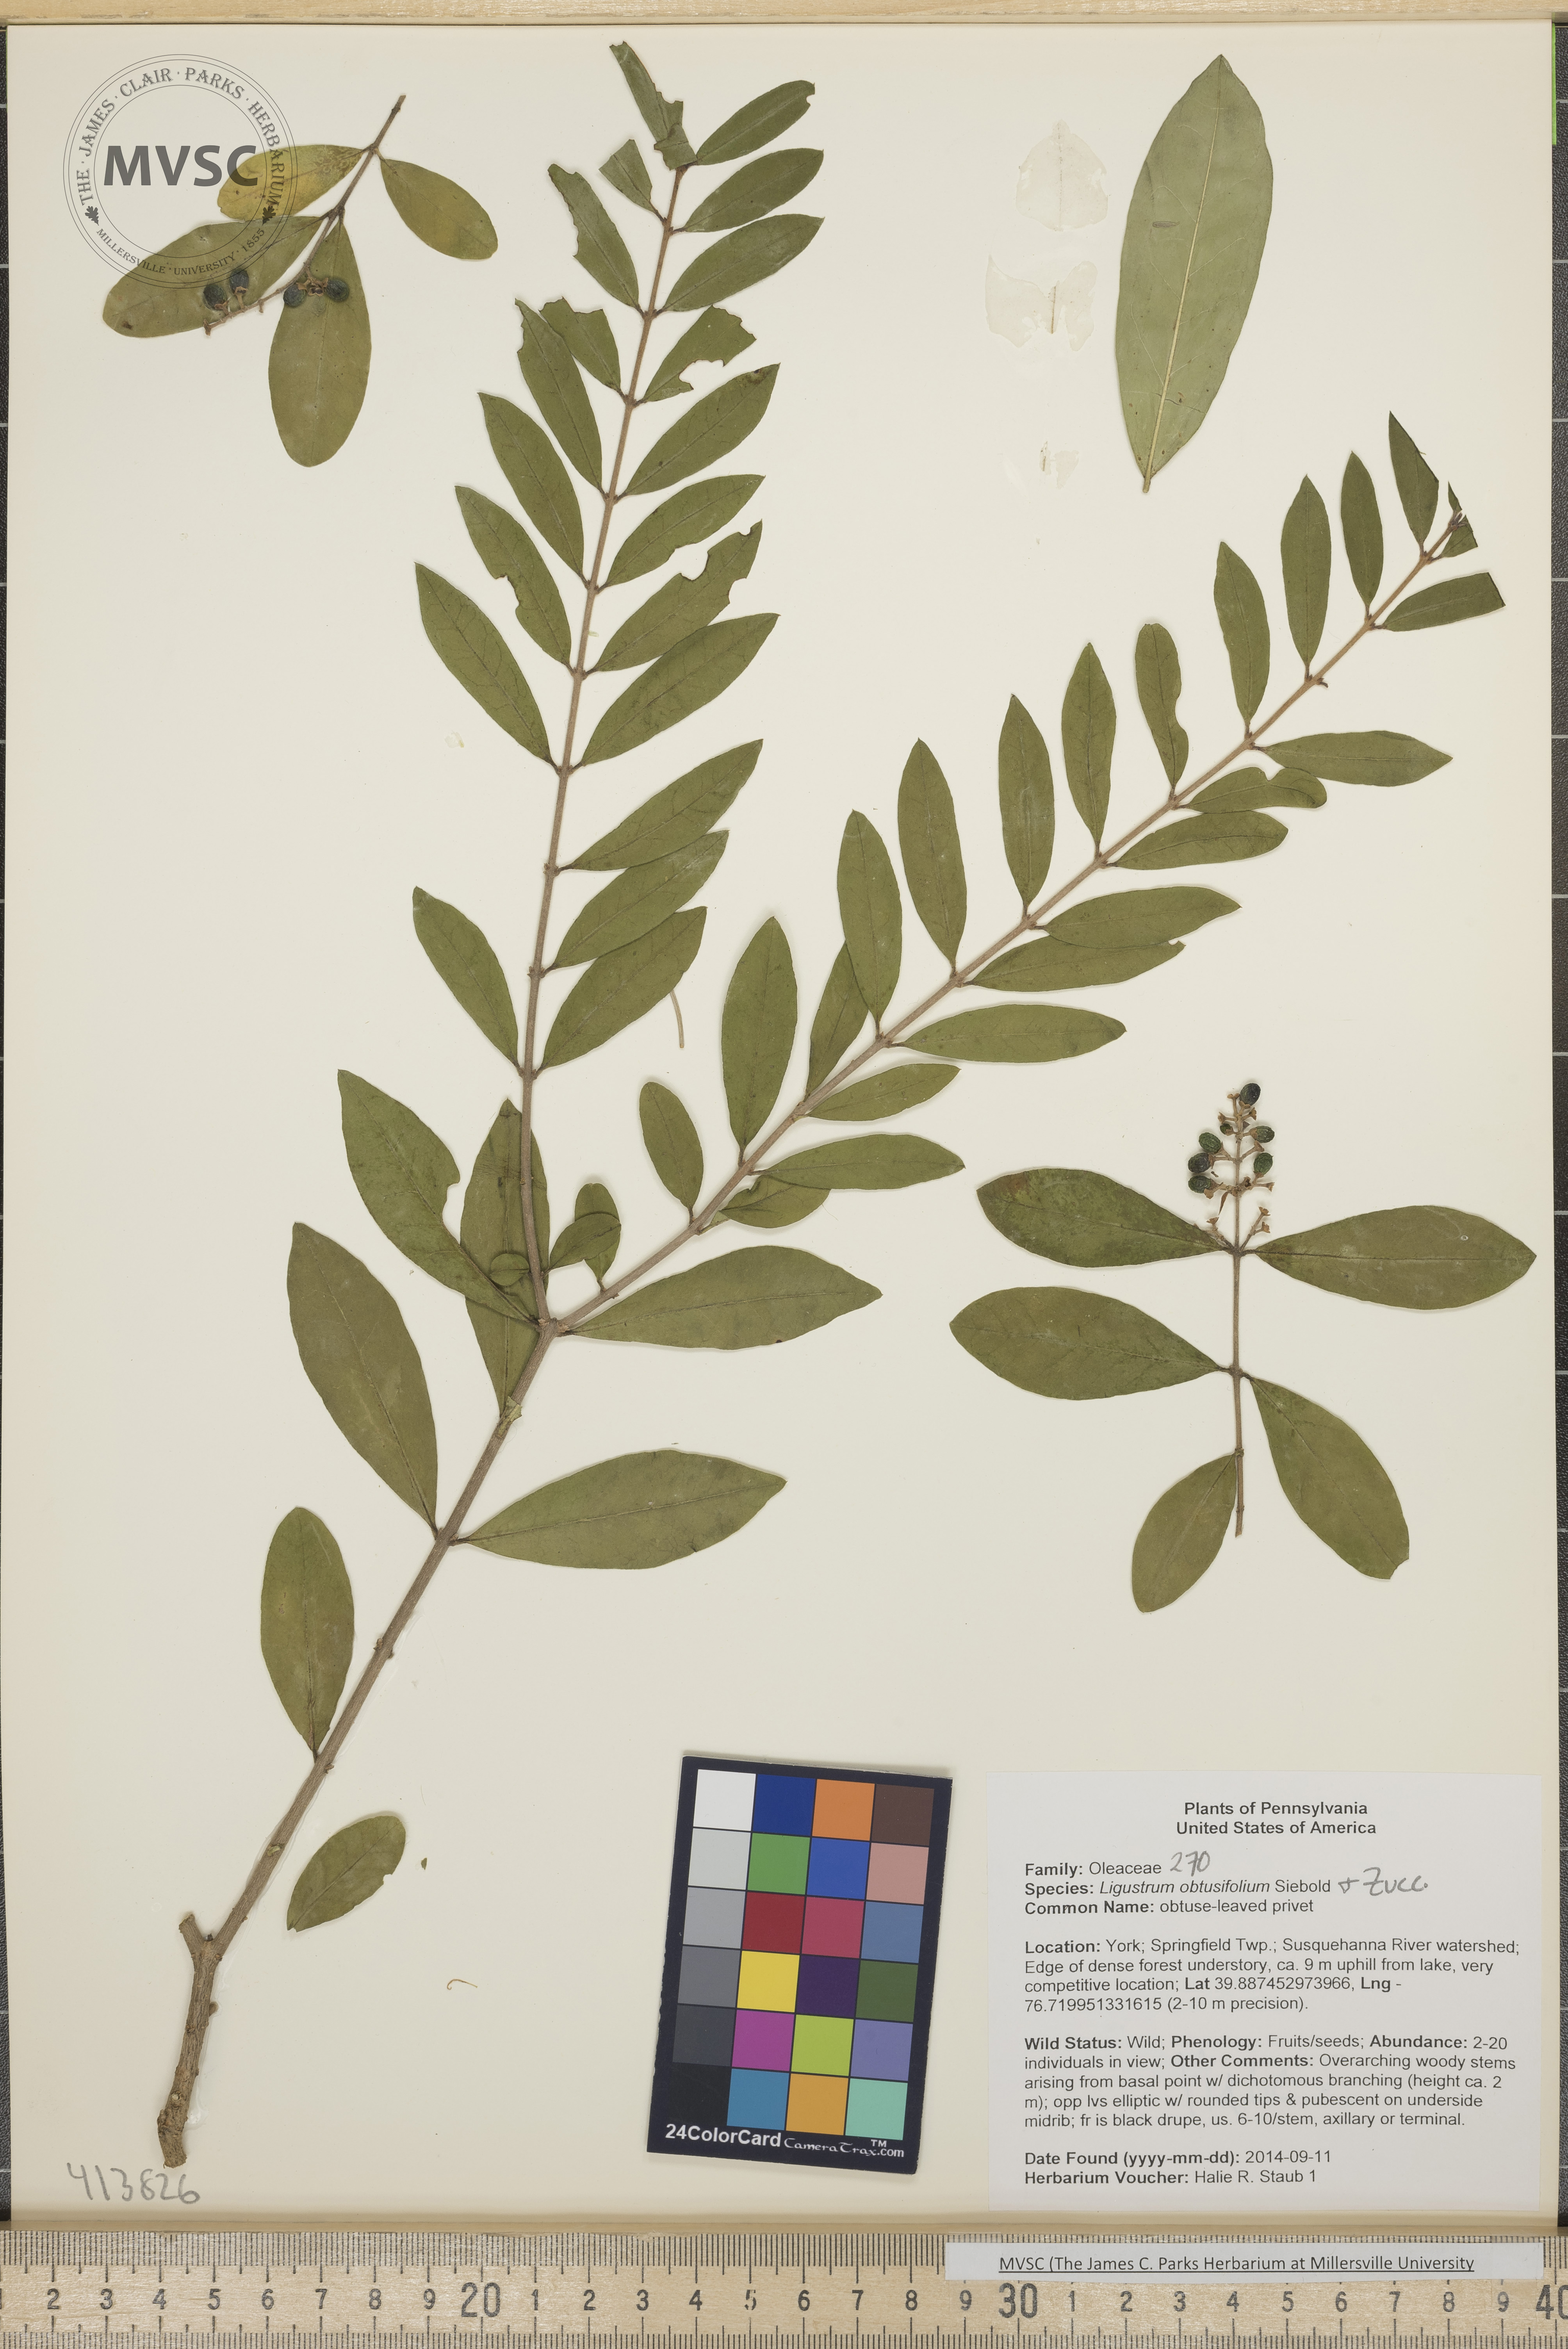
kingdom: Plantae
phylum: Tracheophyta
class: Magnoliopsida
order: Lamiales
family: Oleaceae
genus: Ligustrum
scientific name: Ligustrum obtusifolium
